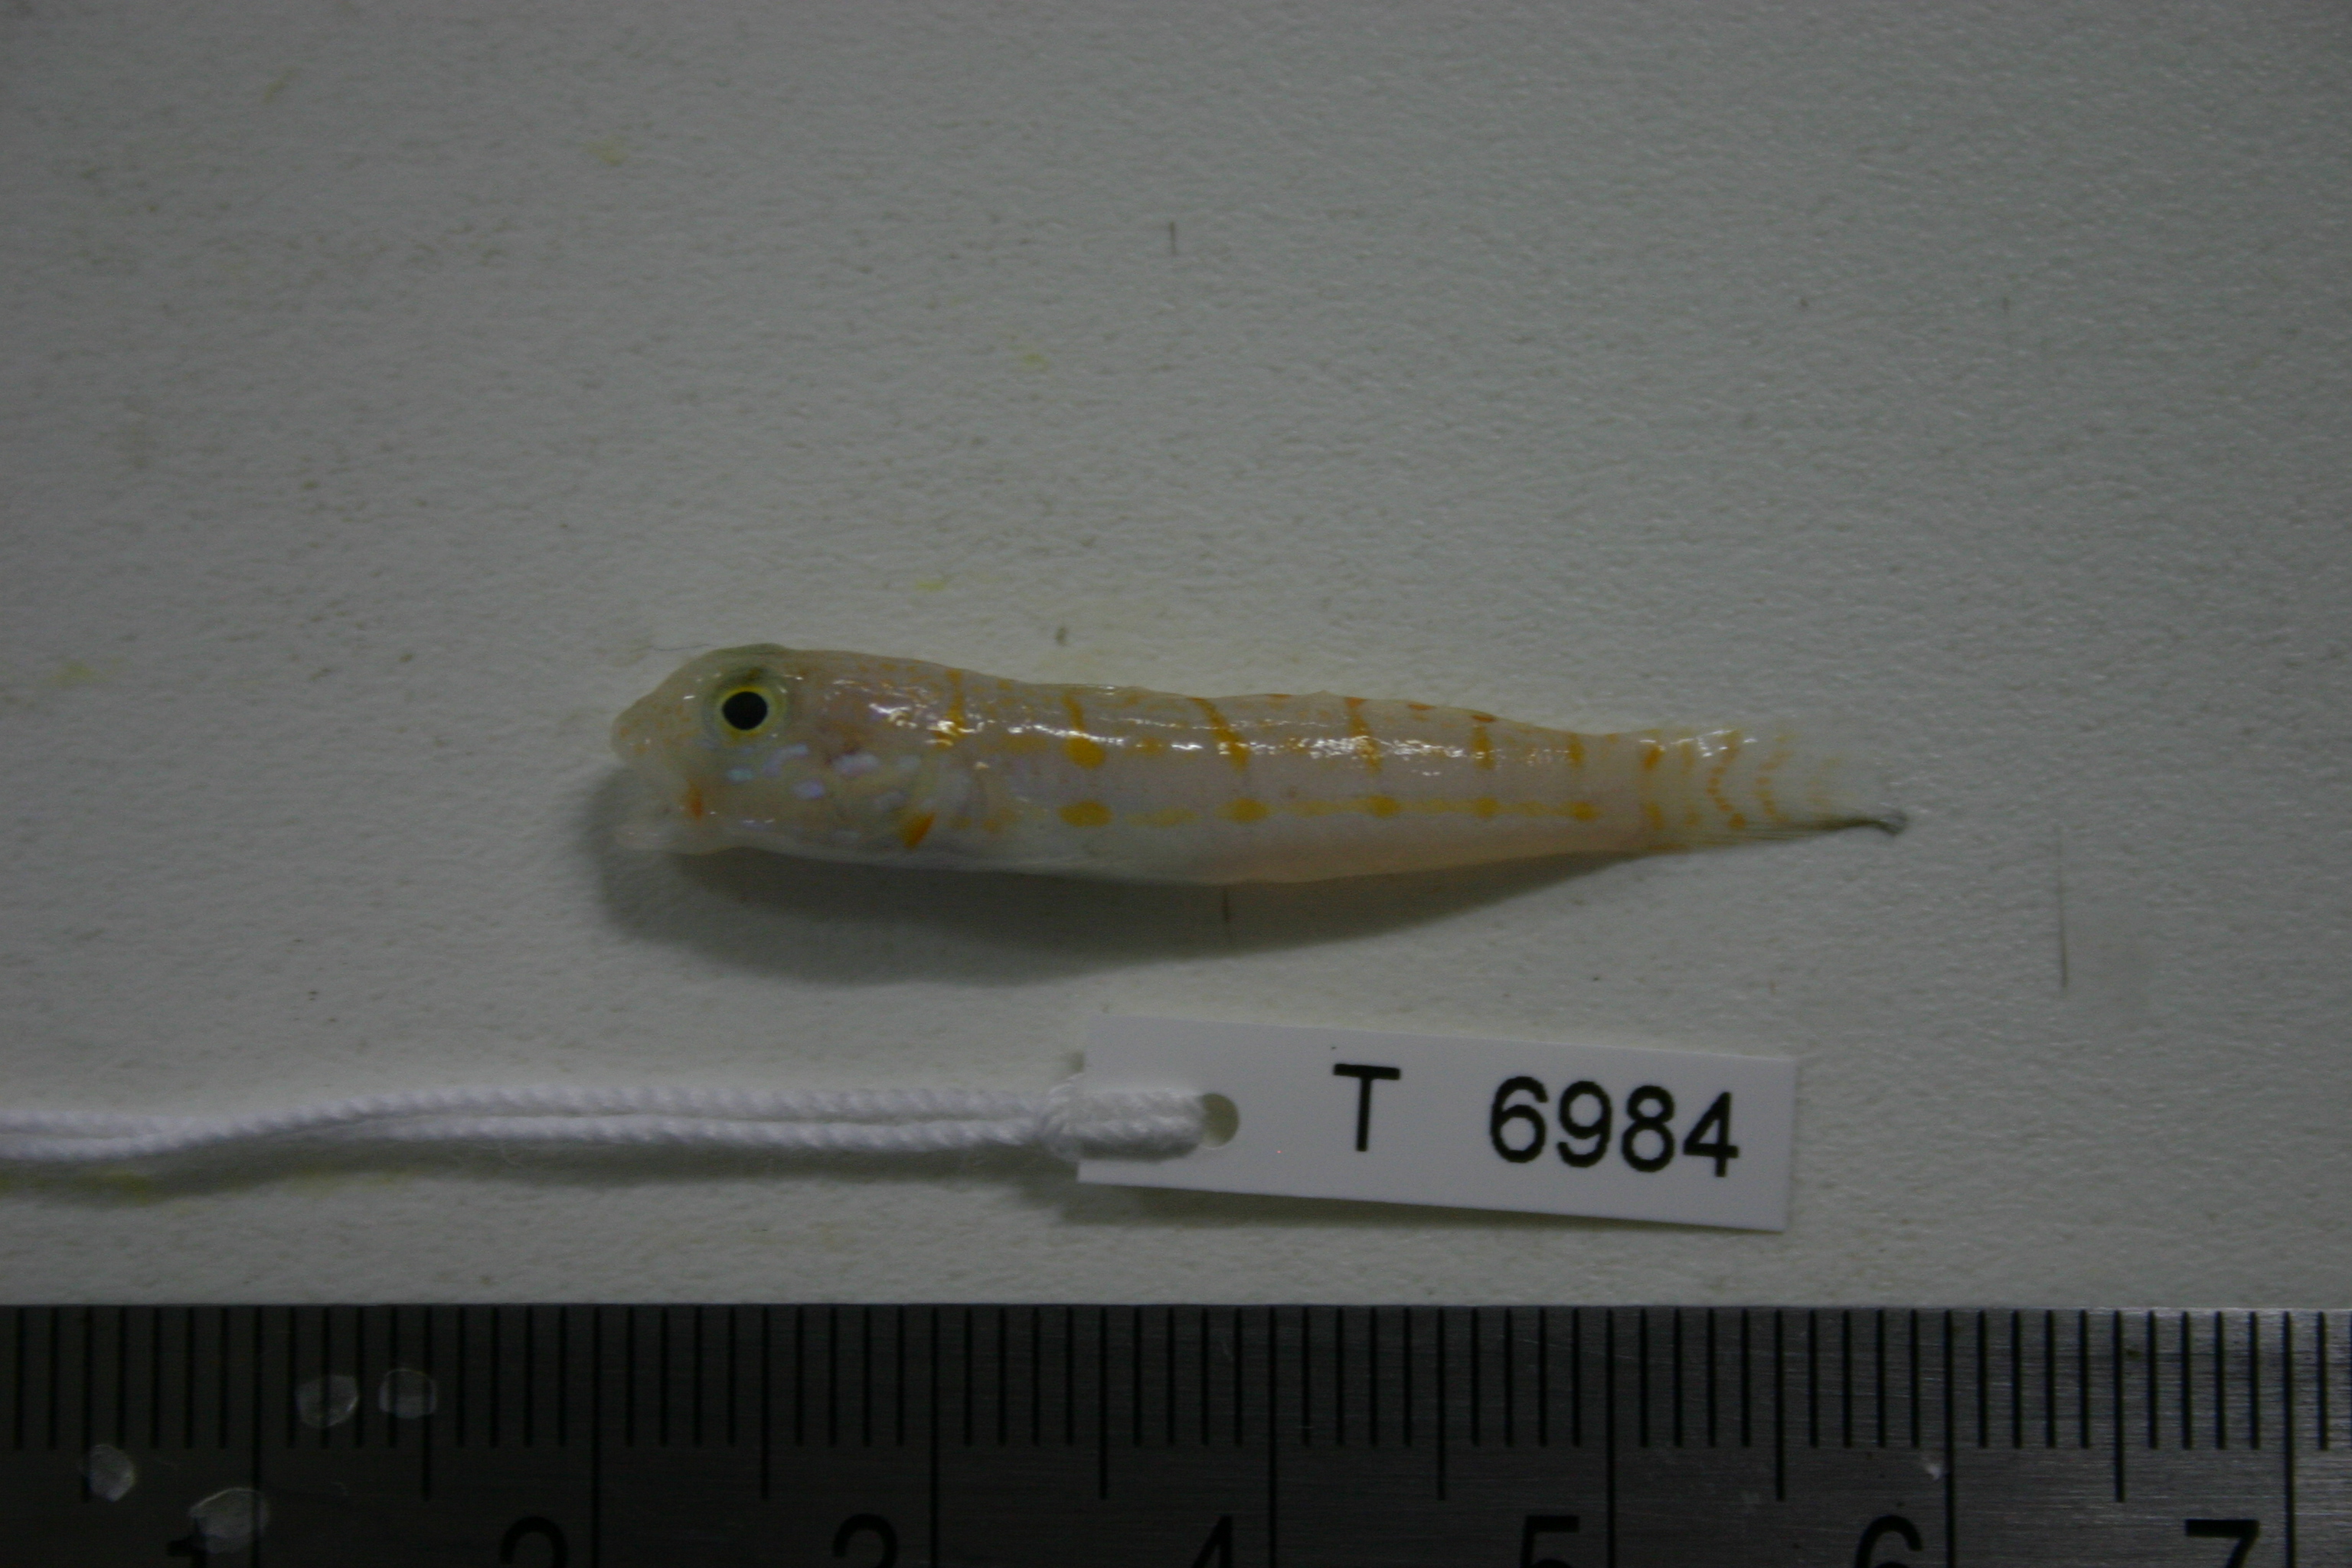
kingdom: Animalia
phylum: Chordata
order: Perciformes
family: Gobiidae
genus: Valenciennea
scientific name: Valenciennea puellaris
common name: Orange-dashed goby
